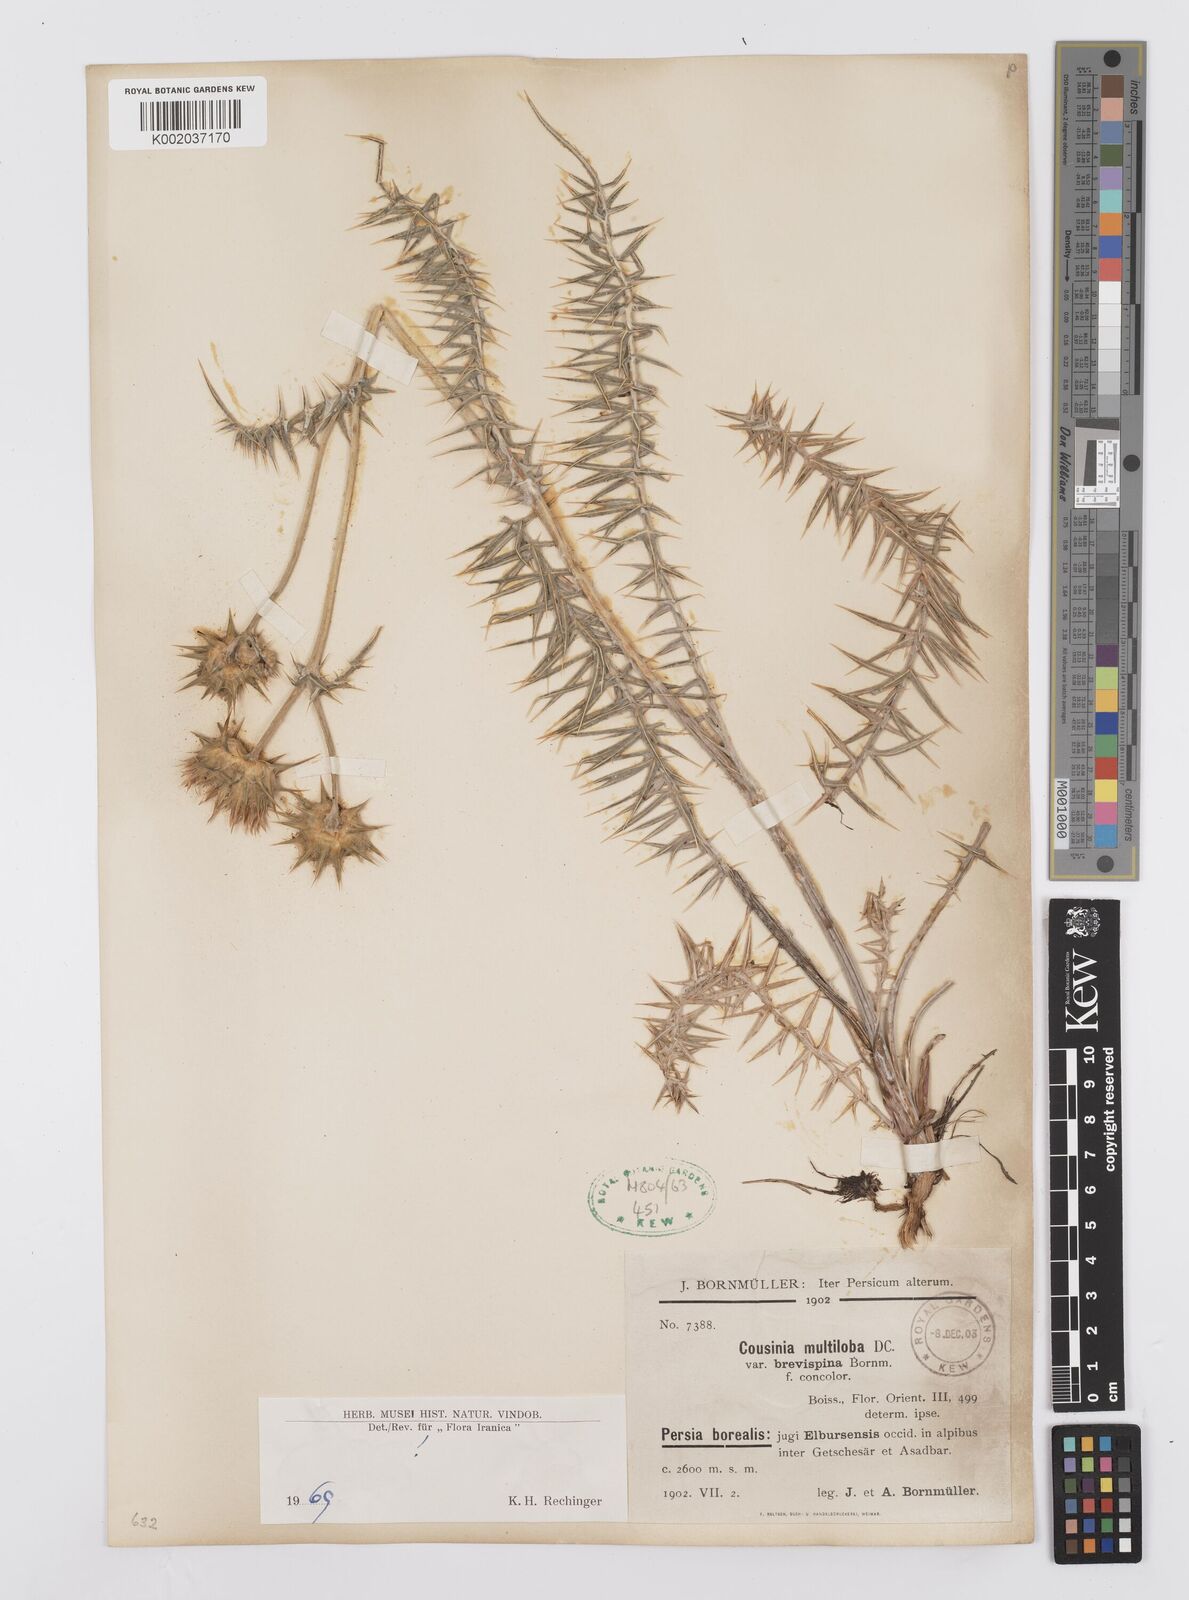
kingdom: Plantae
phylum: Tracheophyta
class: Magnoliopsida
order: Asterales
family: Asteraceae
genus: Cousinia
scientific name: Cousinia multiloba
